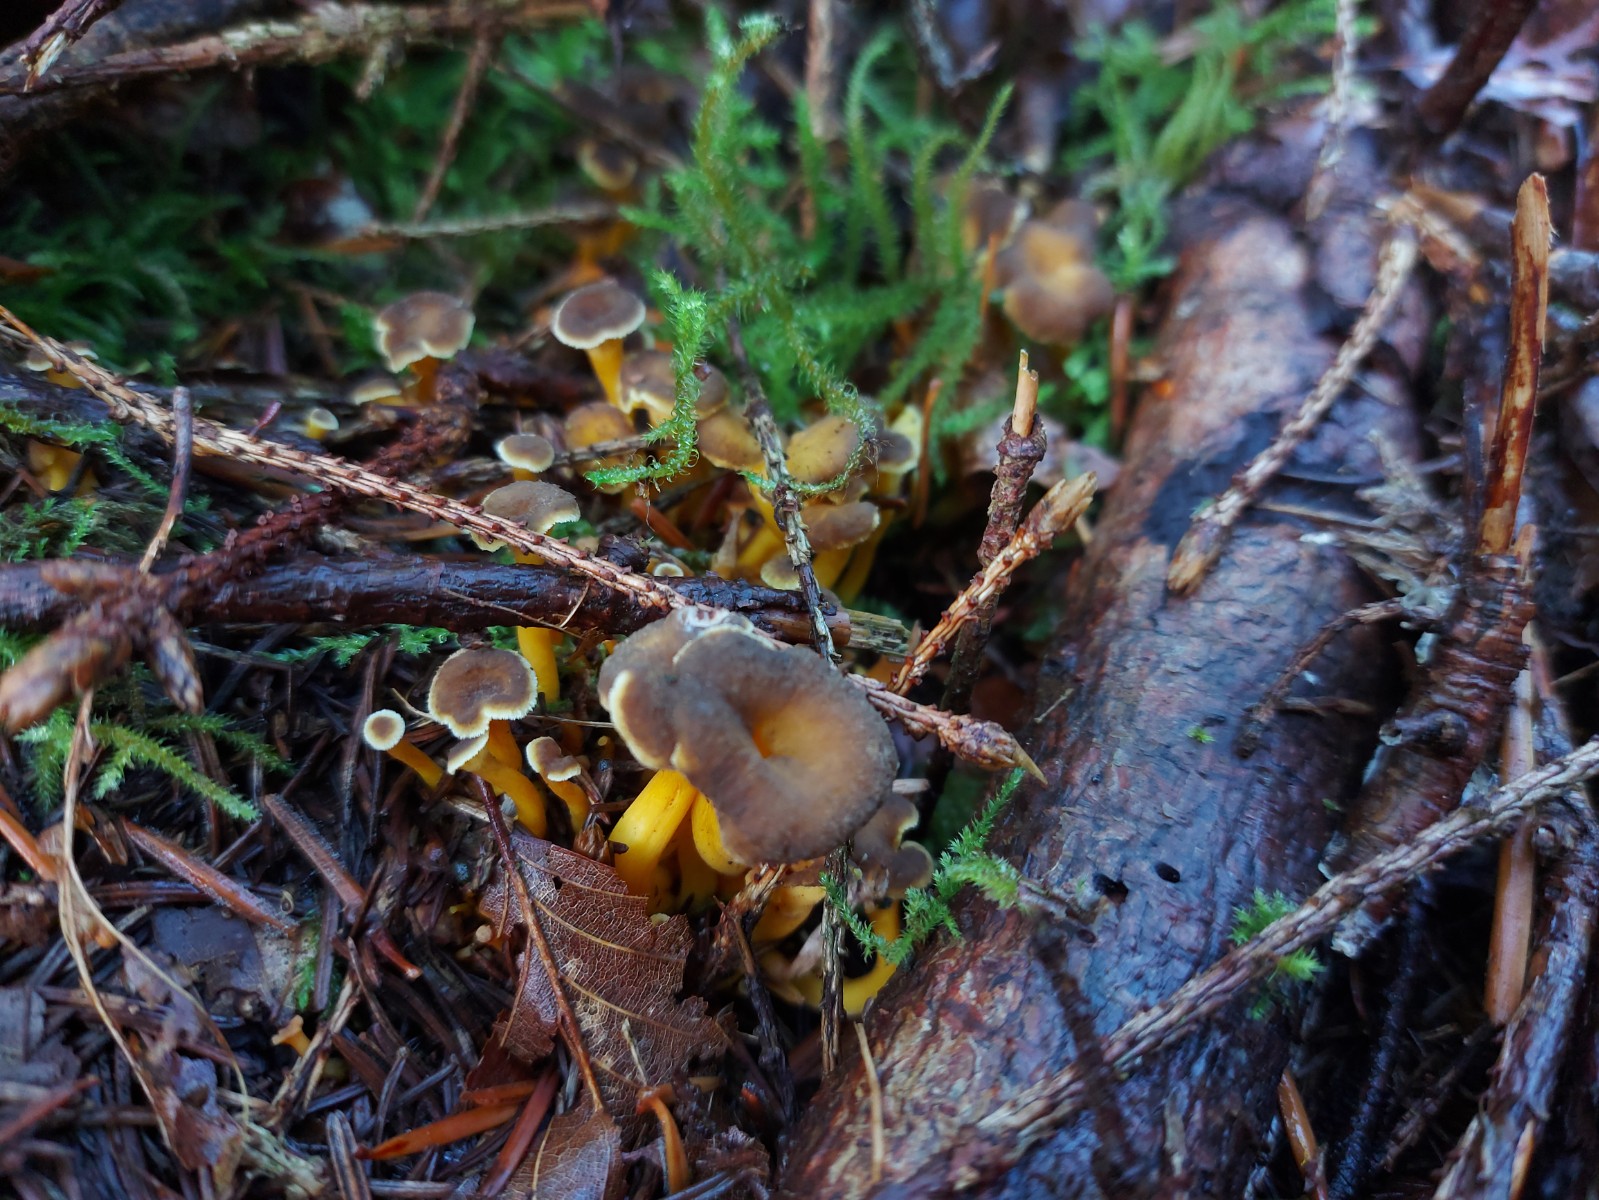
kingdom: Fungi
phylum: Basidiomycota
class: Agaricomycetes
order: Cantharellales
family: Hydnaceae
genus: Craterellus
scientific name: Craterellus tubaeformis
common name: tragt-kantarel
